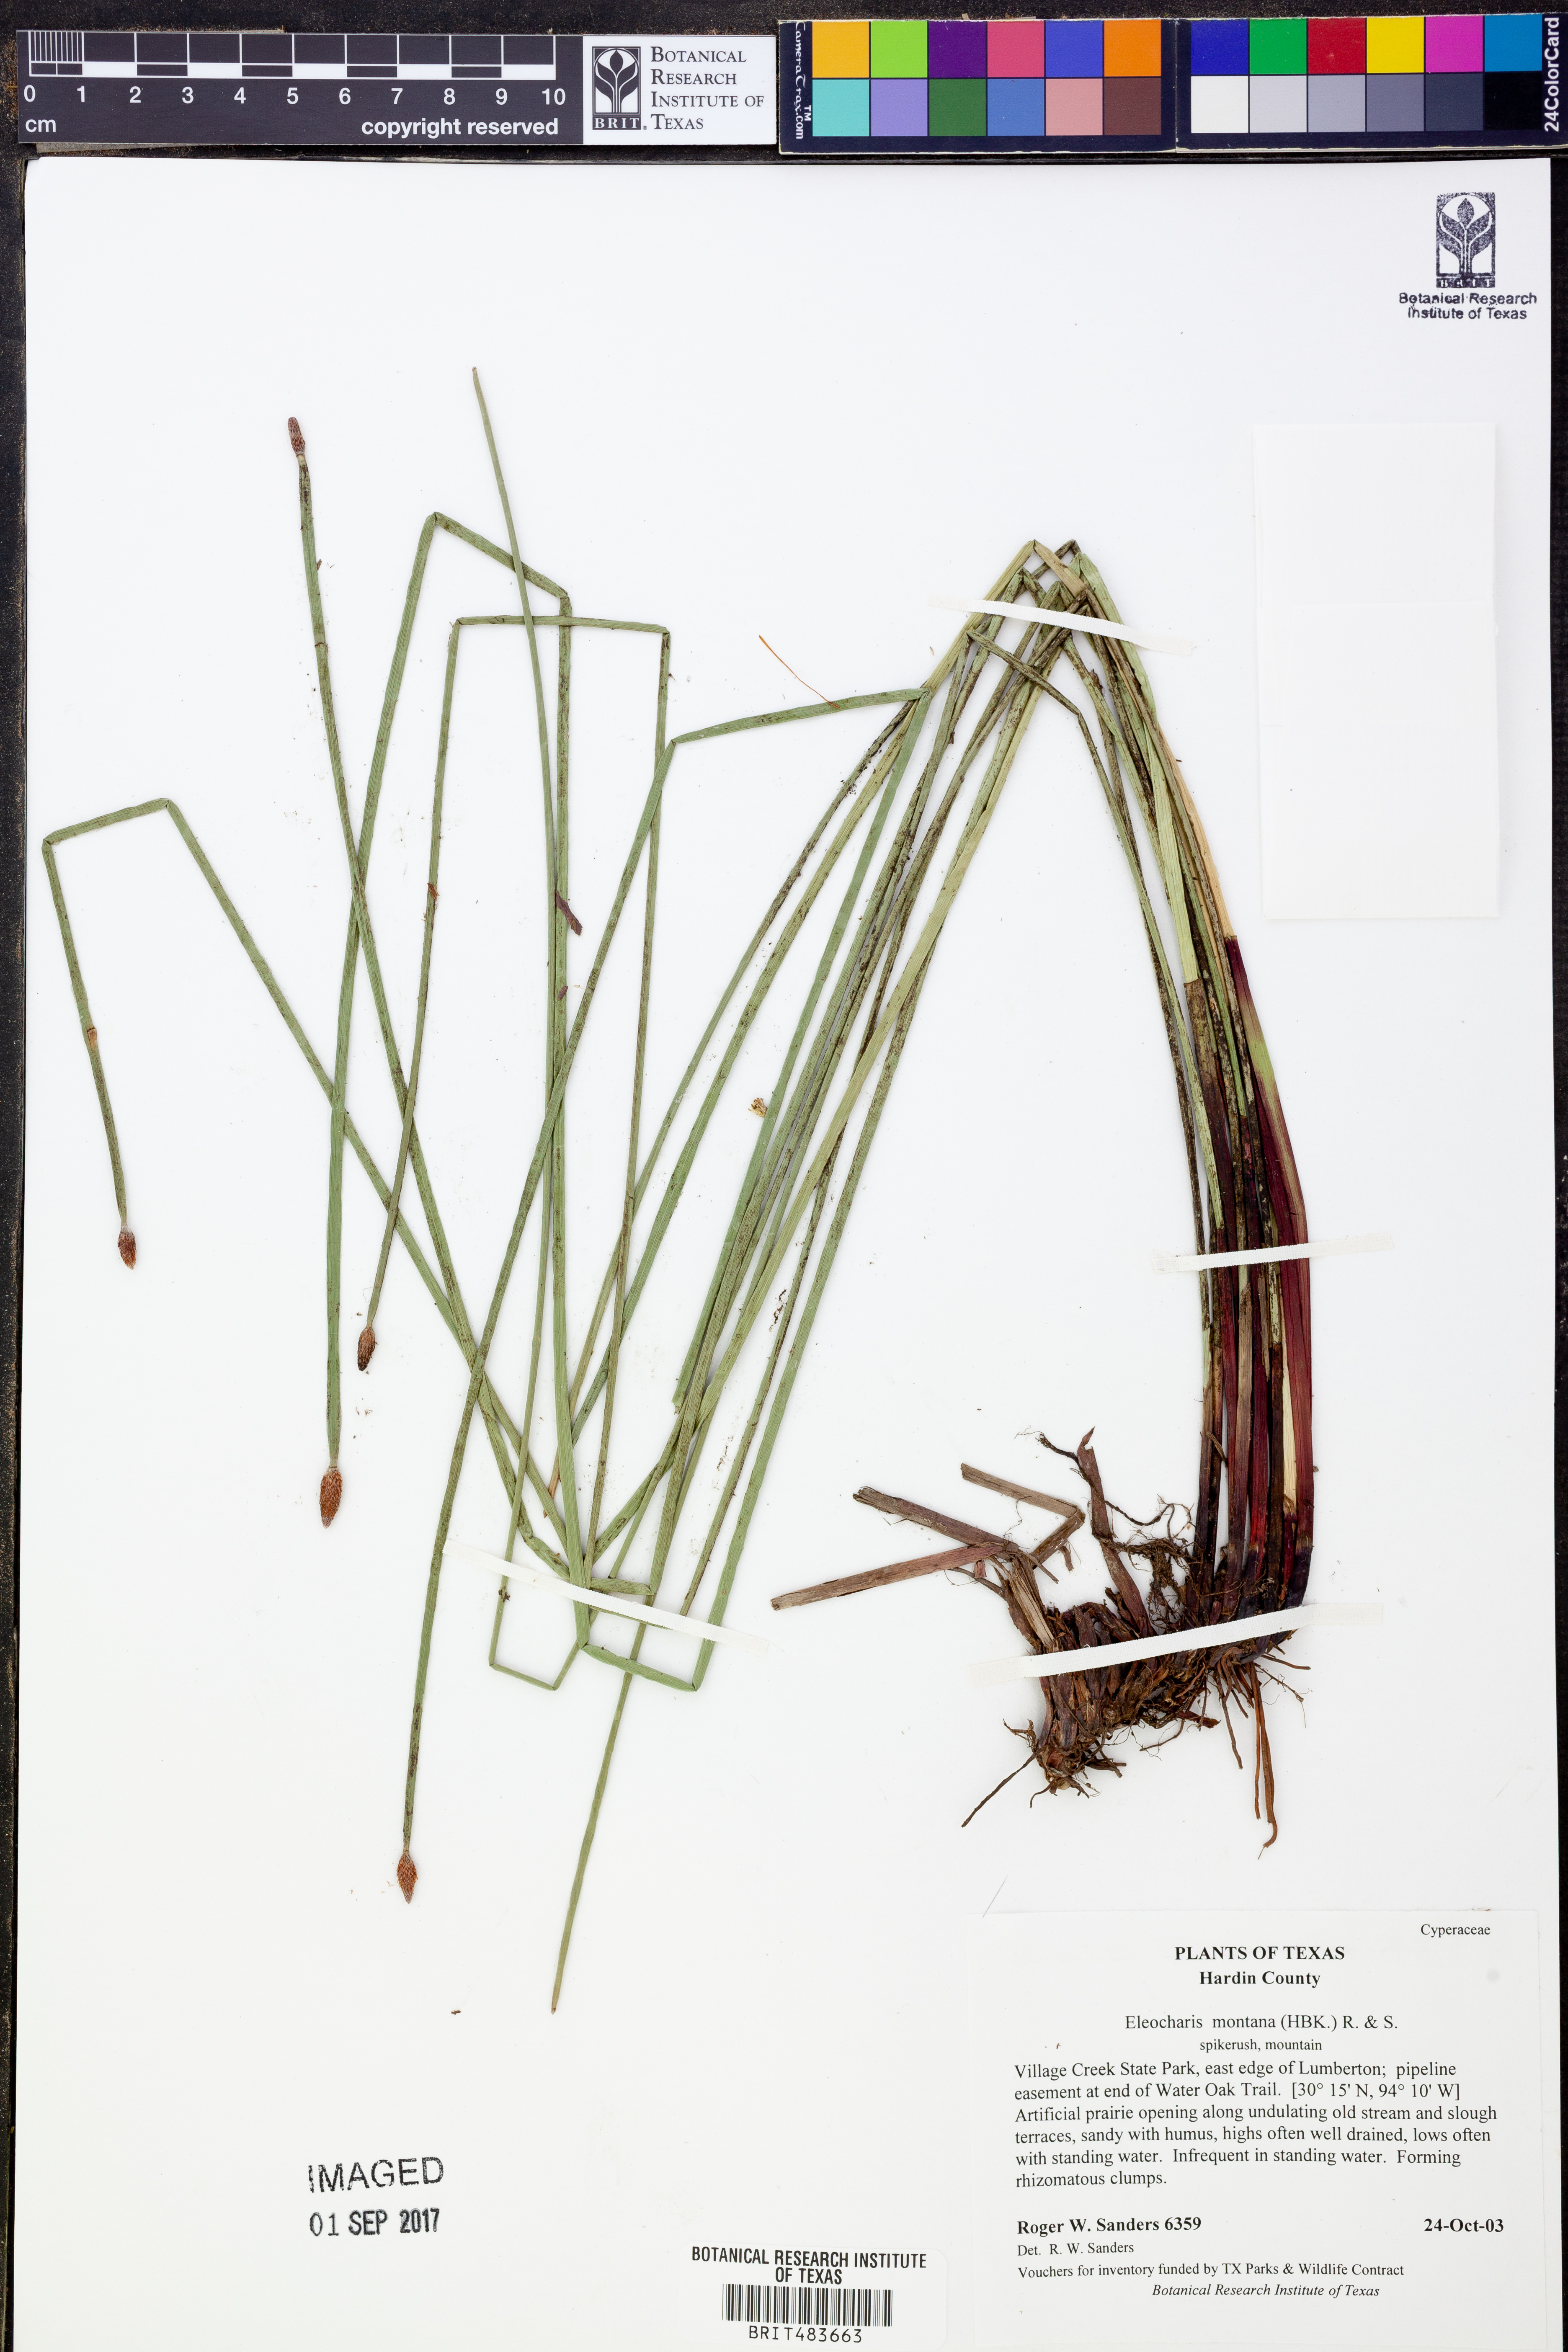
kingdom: Plantae
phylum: Tracheophyta
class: Liliopsida
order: Poales
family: Cyperaceae
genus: Eleocharis
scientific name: Eleocharis montana
